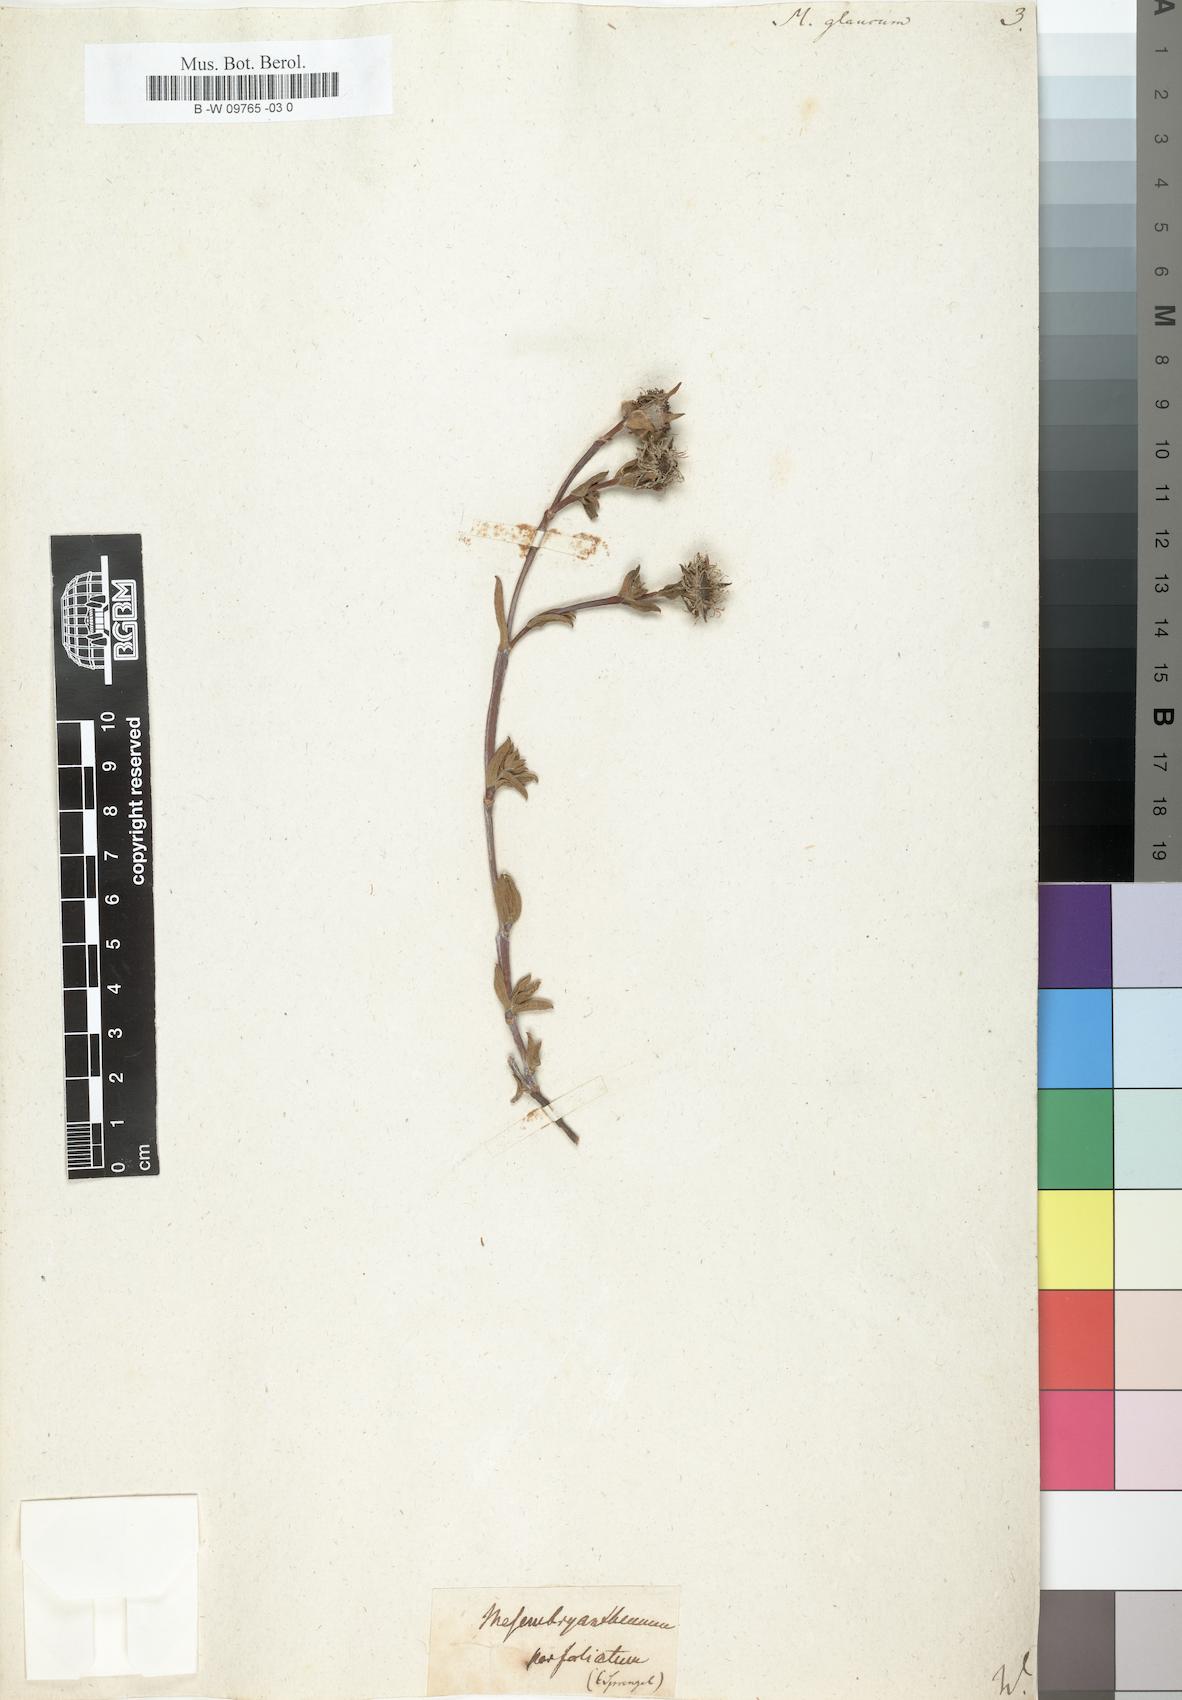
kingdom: Plantae
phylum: Tracheophyta
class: Magnoliopsida
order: Caryophyllales
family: Aizoaceae
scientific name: Aizoaceae
